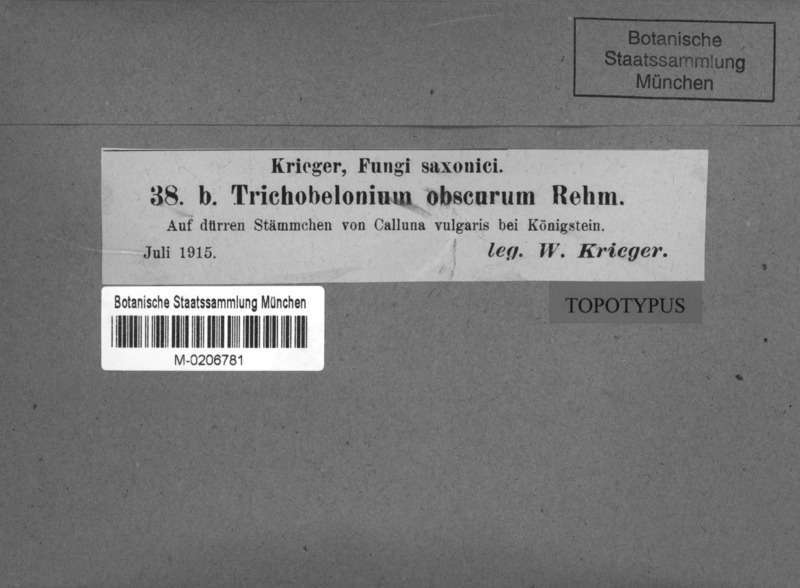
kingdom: Fungi
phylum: Ascomycota
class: Leotiomycetes
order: Helotiales
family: Mollisiaceae
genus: Mollisia
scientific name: Mollisia obscura
